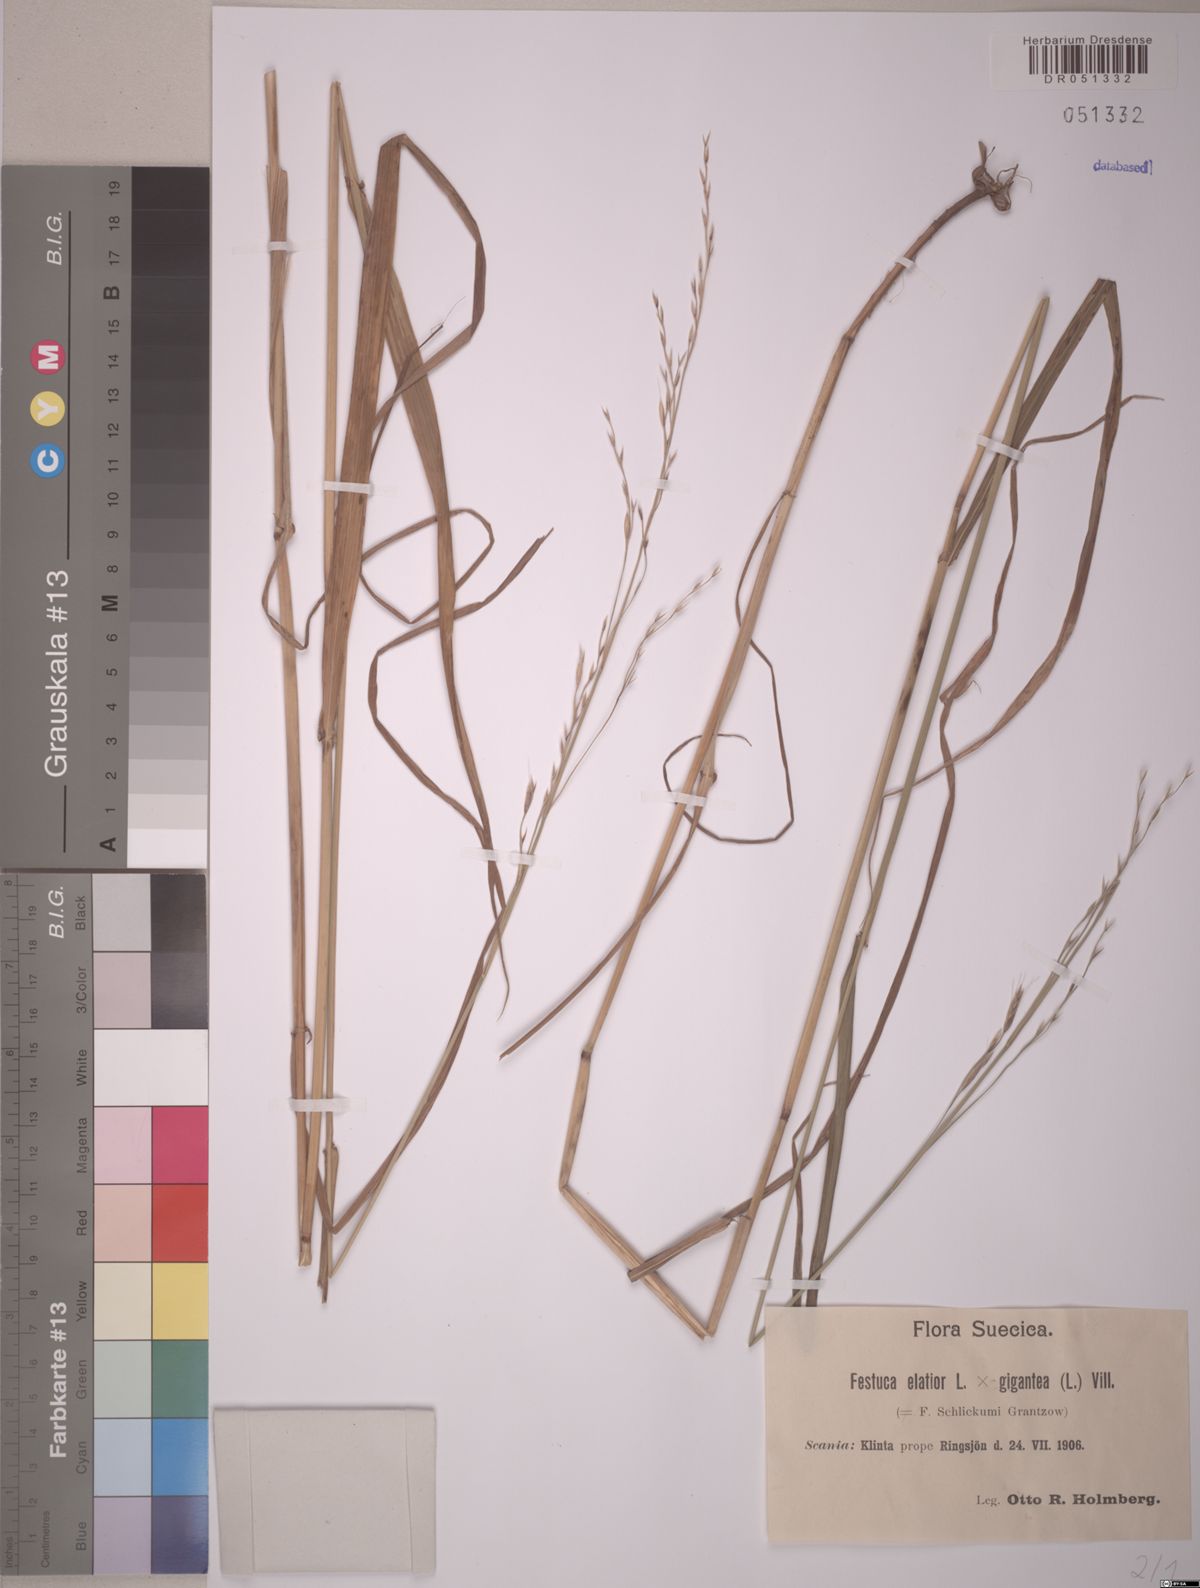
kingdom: Plantae
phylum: Tracheophyta
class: Liliopsida
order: Poales
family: Poaceae
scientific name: Poaceae
